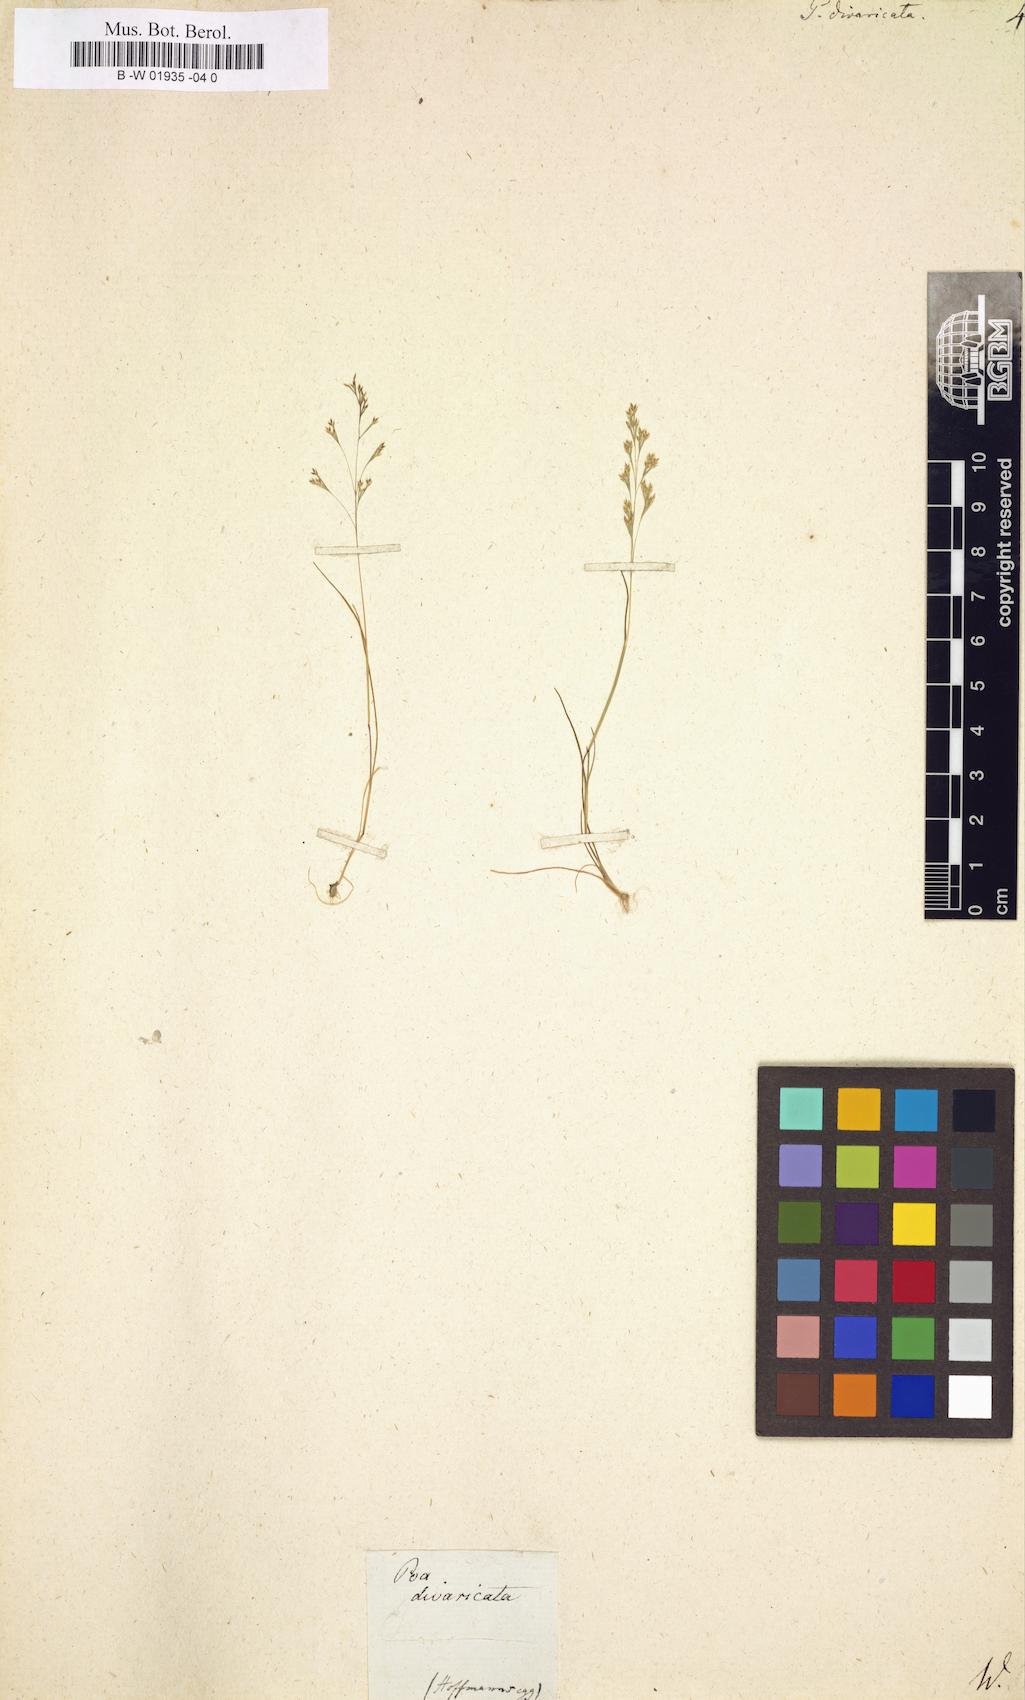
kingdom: Plantae
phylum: Tracheophyta
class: Liliopsida
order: Poales
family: Poaceae
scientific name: Poaceae
